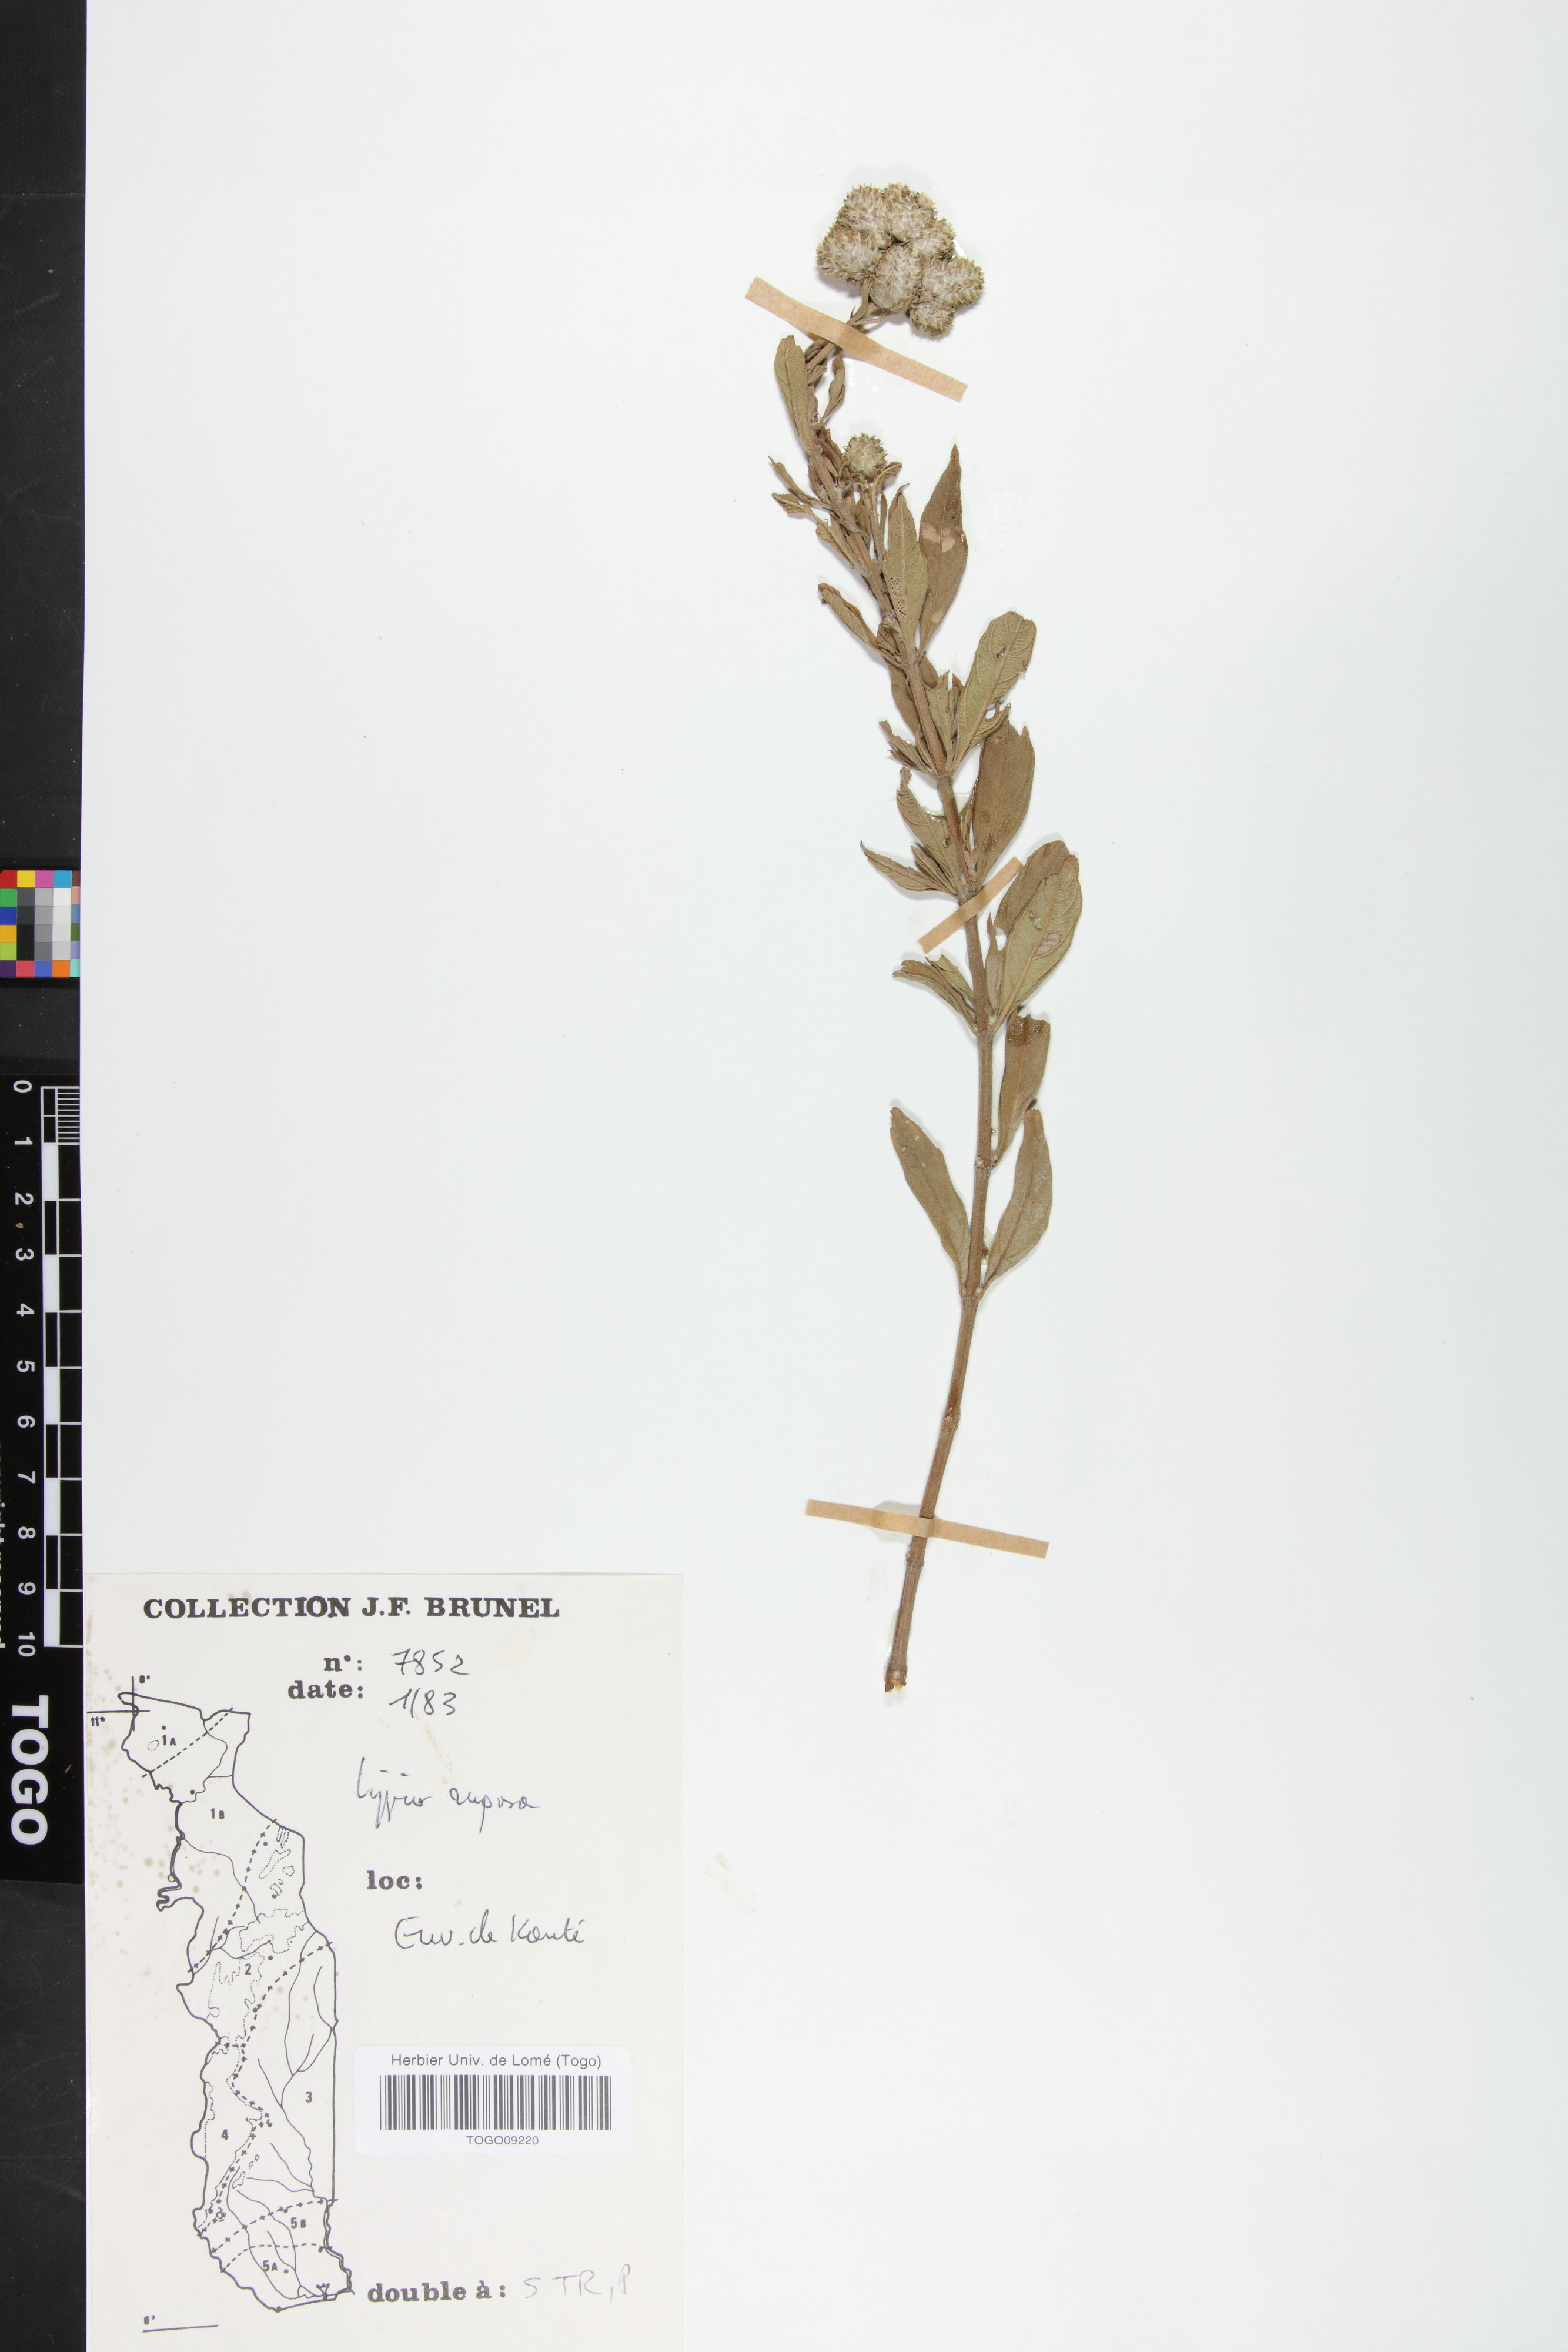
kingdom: Plantae
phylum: Tracheophyta
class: Magnoliopsida
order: Lamiales
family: Verbenaceae
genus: Lippia
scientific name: Lippia rugosa
